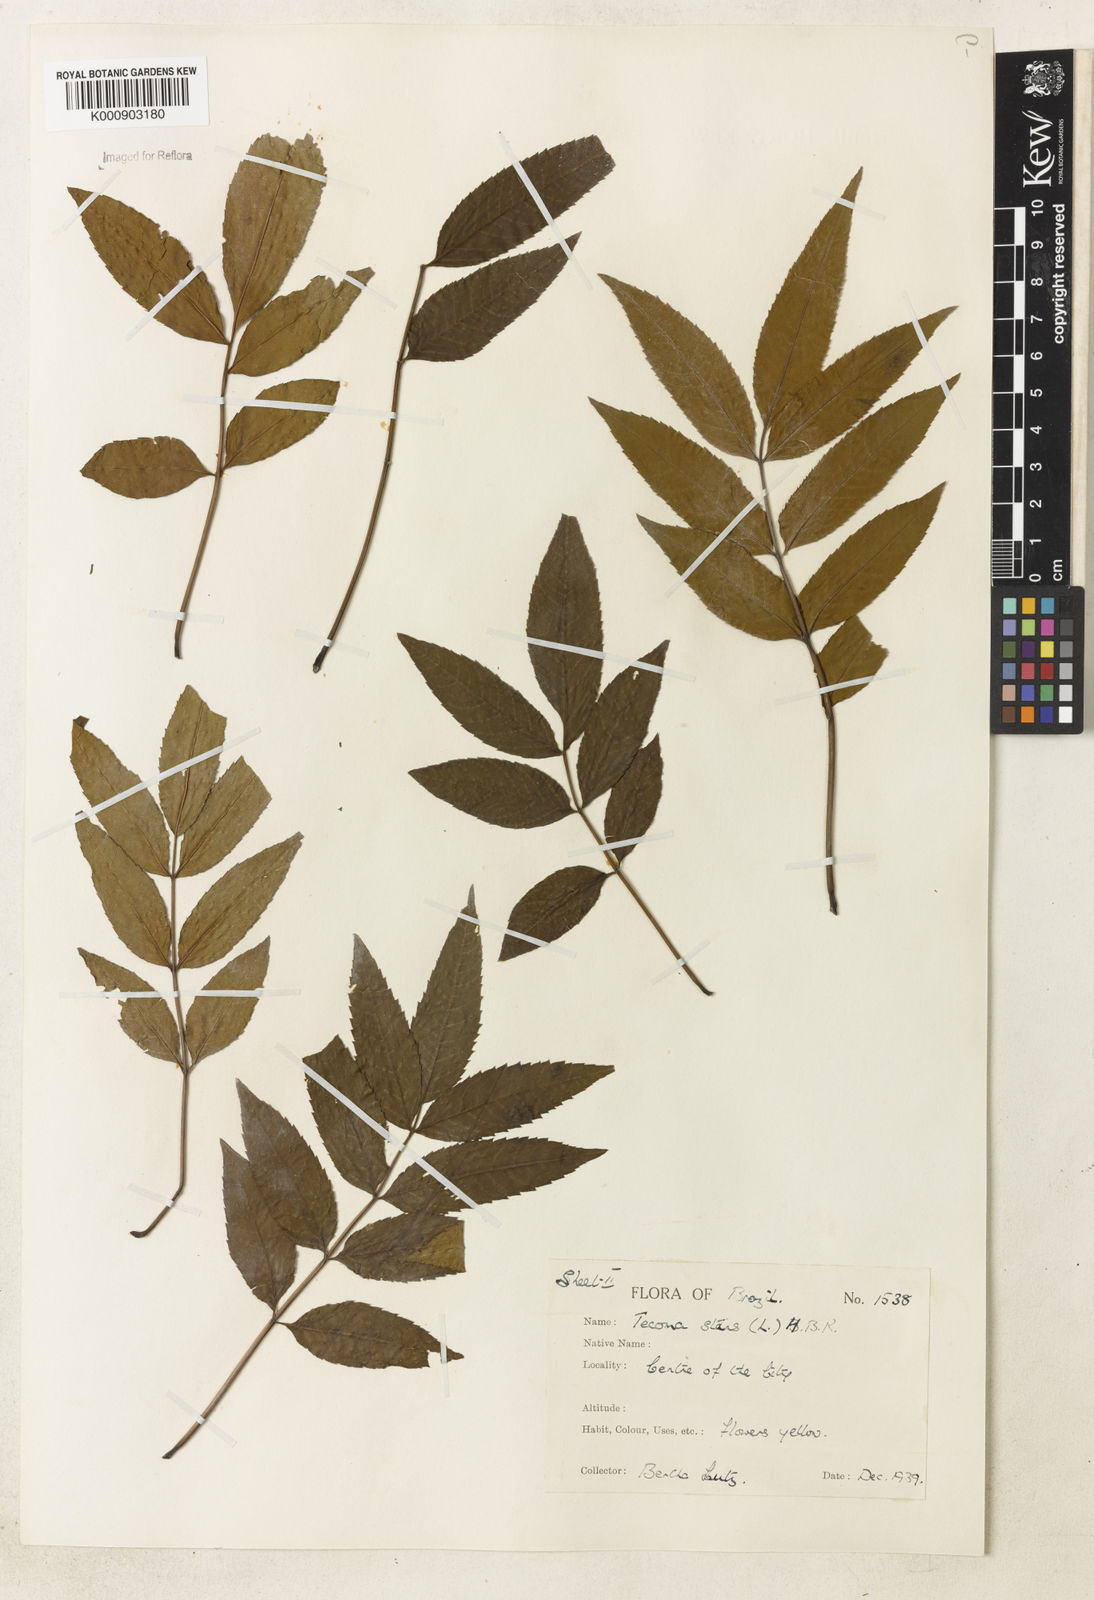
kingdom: Plantae
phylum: Tracheophyta
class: Magnoliopsida
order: Lamiales
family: Bignoniaceae
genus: Tecoma
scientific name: Tecoma stans
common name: Yellow trumpetbush
